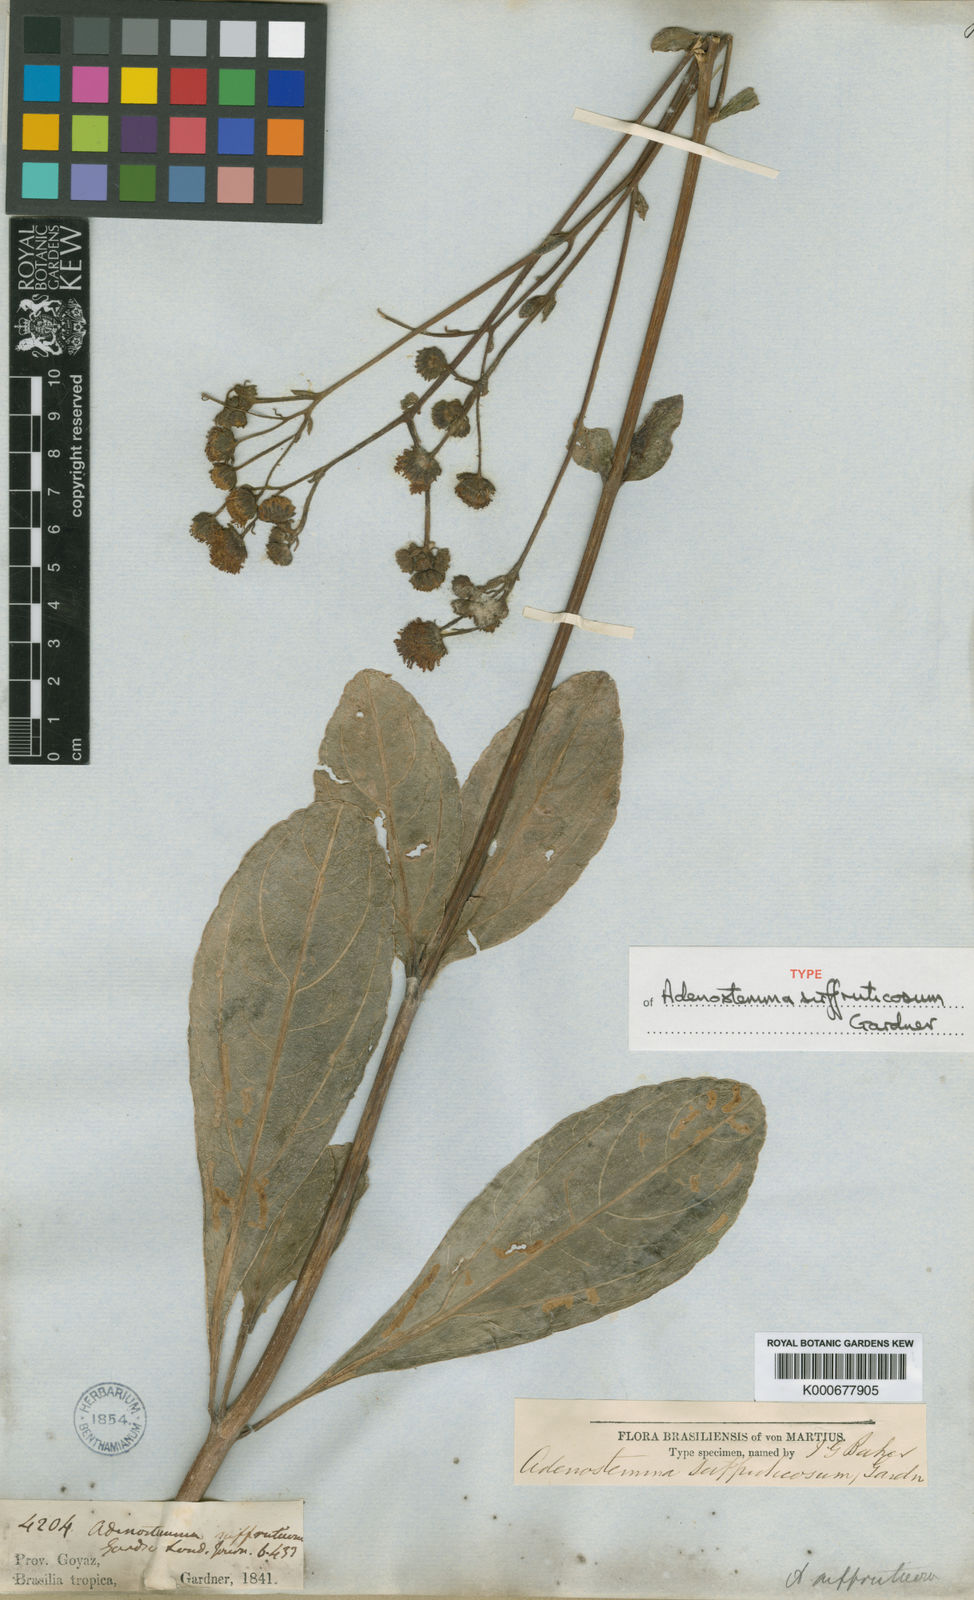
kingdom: Plantae
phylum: Tracheophyta
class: Magnoliopsida
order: Asterales
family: Asteraceae
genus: Adenostemma
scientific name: Adenostemma suffruticosum
